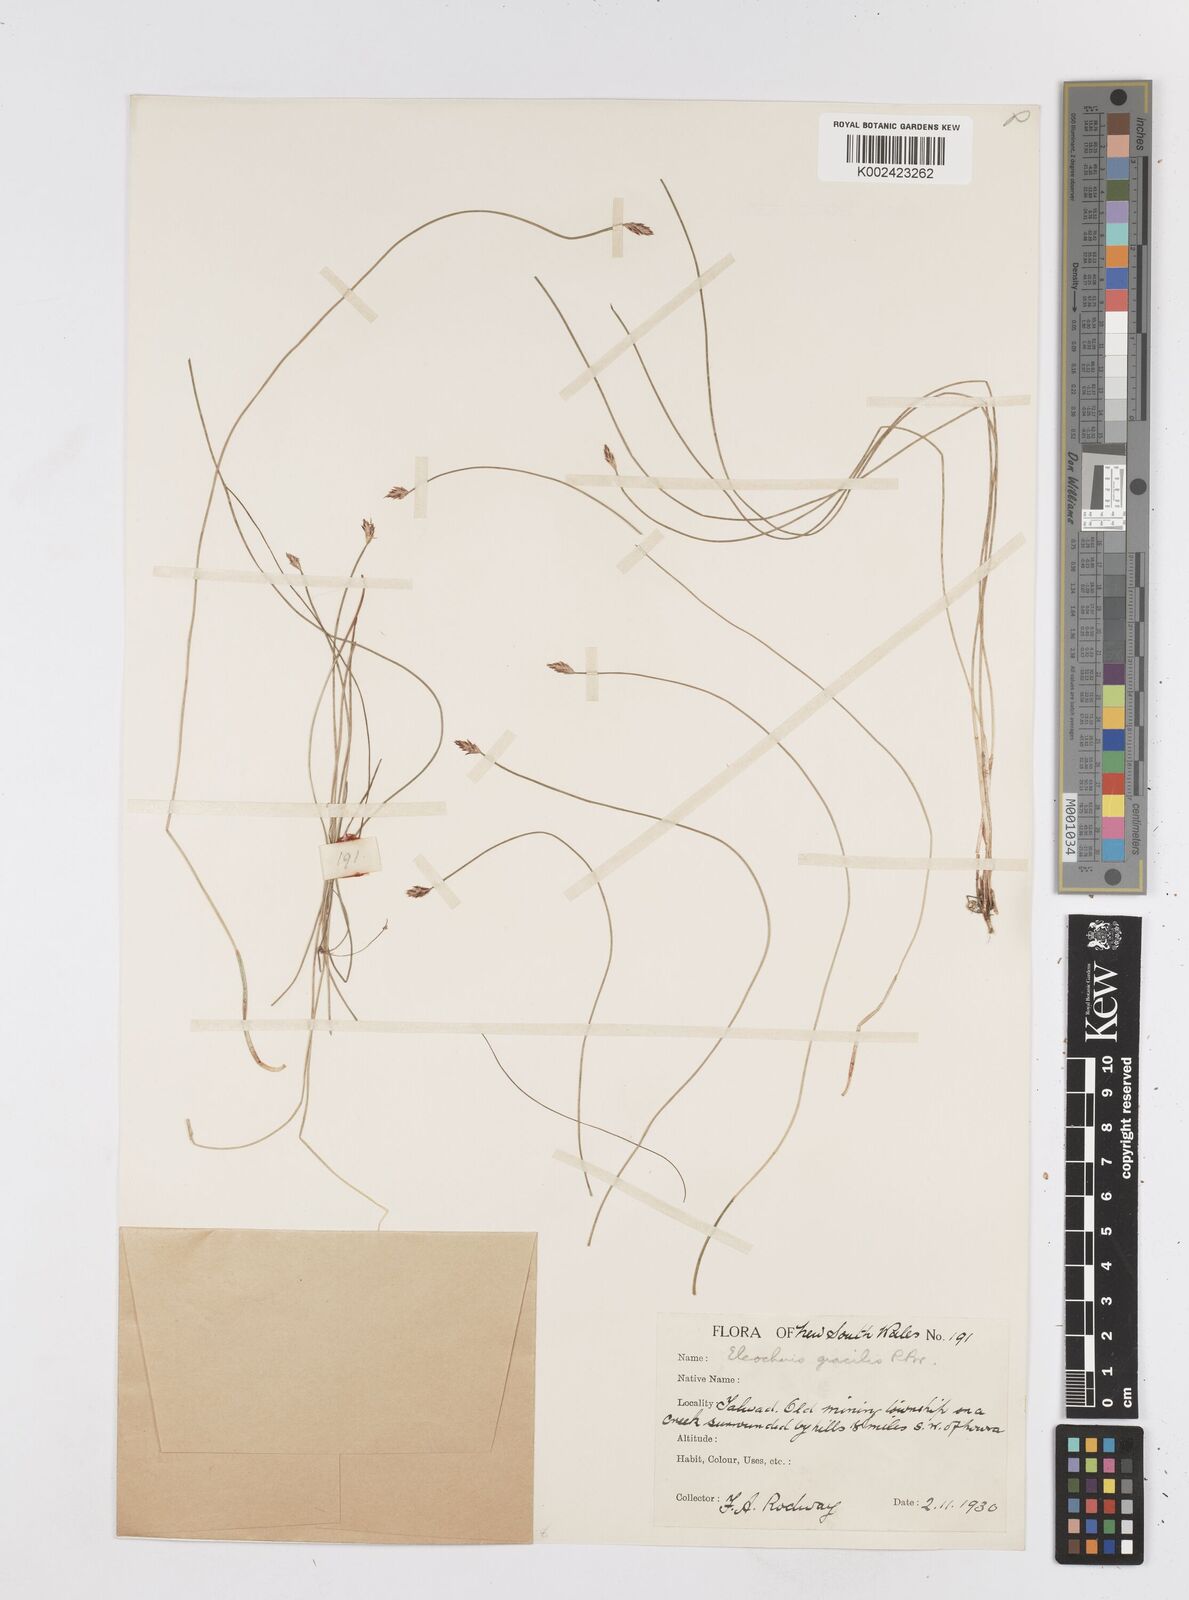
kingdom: Plantae
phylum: Tracheophyta
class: Liliopsida
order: Poales
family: Cyperaceae
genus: Eleocharis
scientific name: Eleocharis multicaulis
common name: Many-stalked spike-rush
